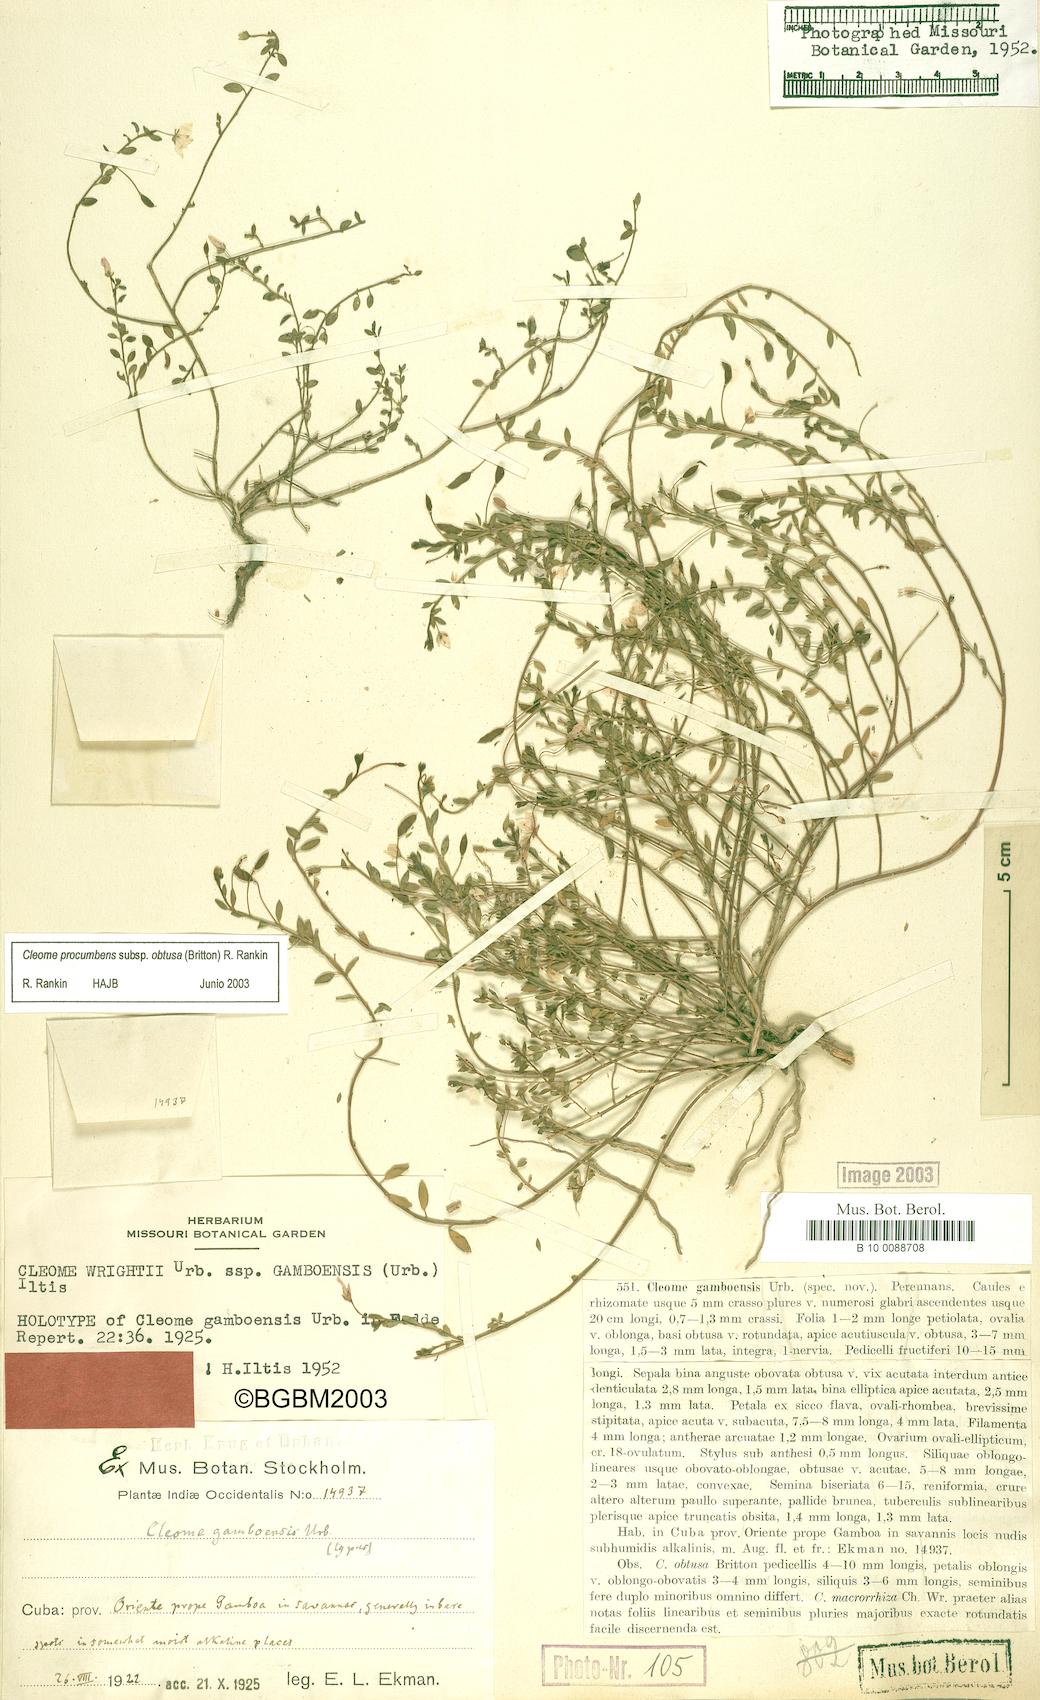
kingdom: Plantae
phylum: Tracheophyta
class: Magnoliopsida
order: Brassicales
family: Cleomaceae
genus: Physostemon
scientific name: Physostemon procumbens
